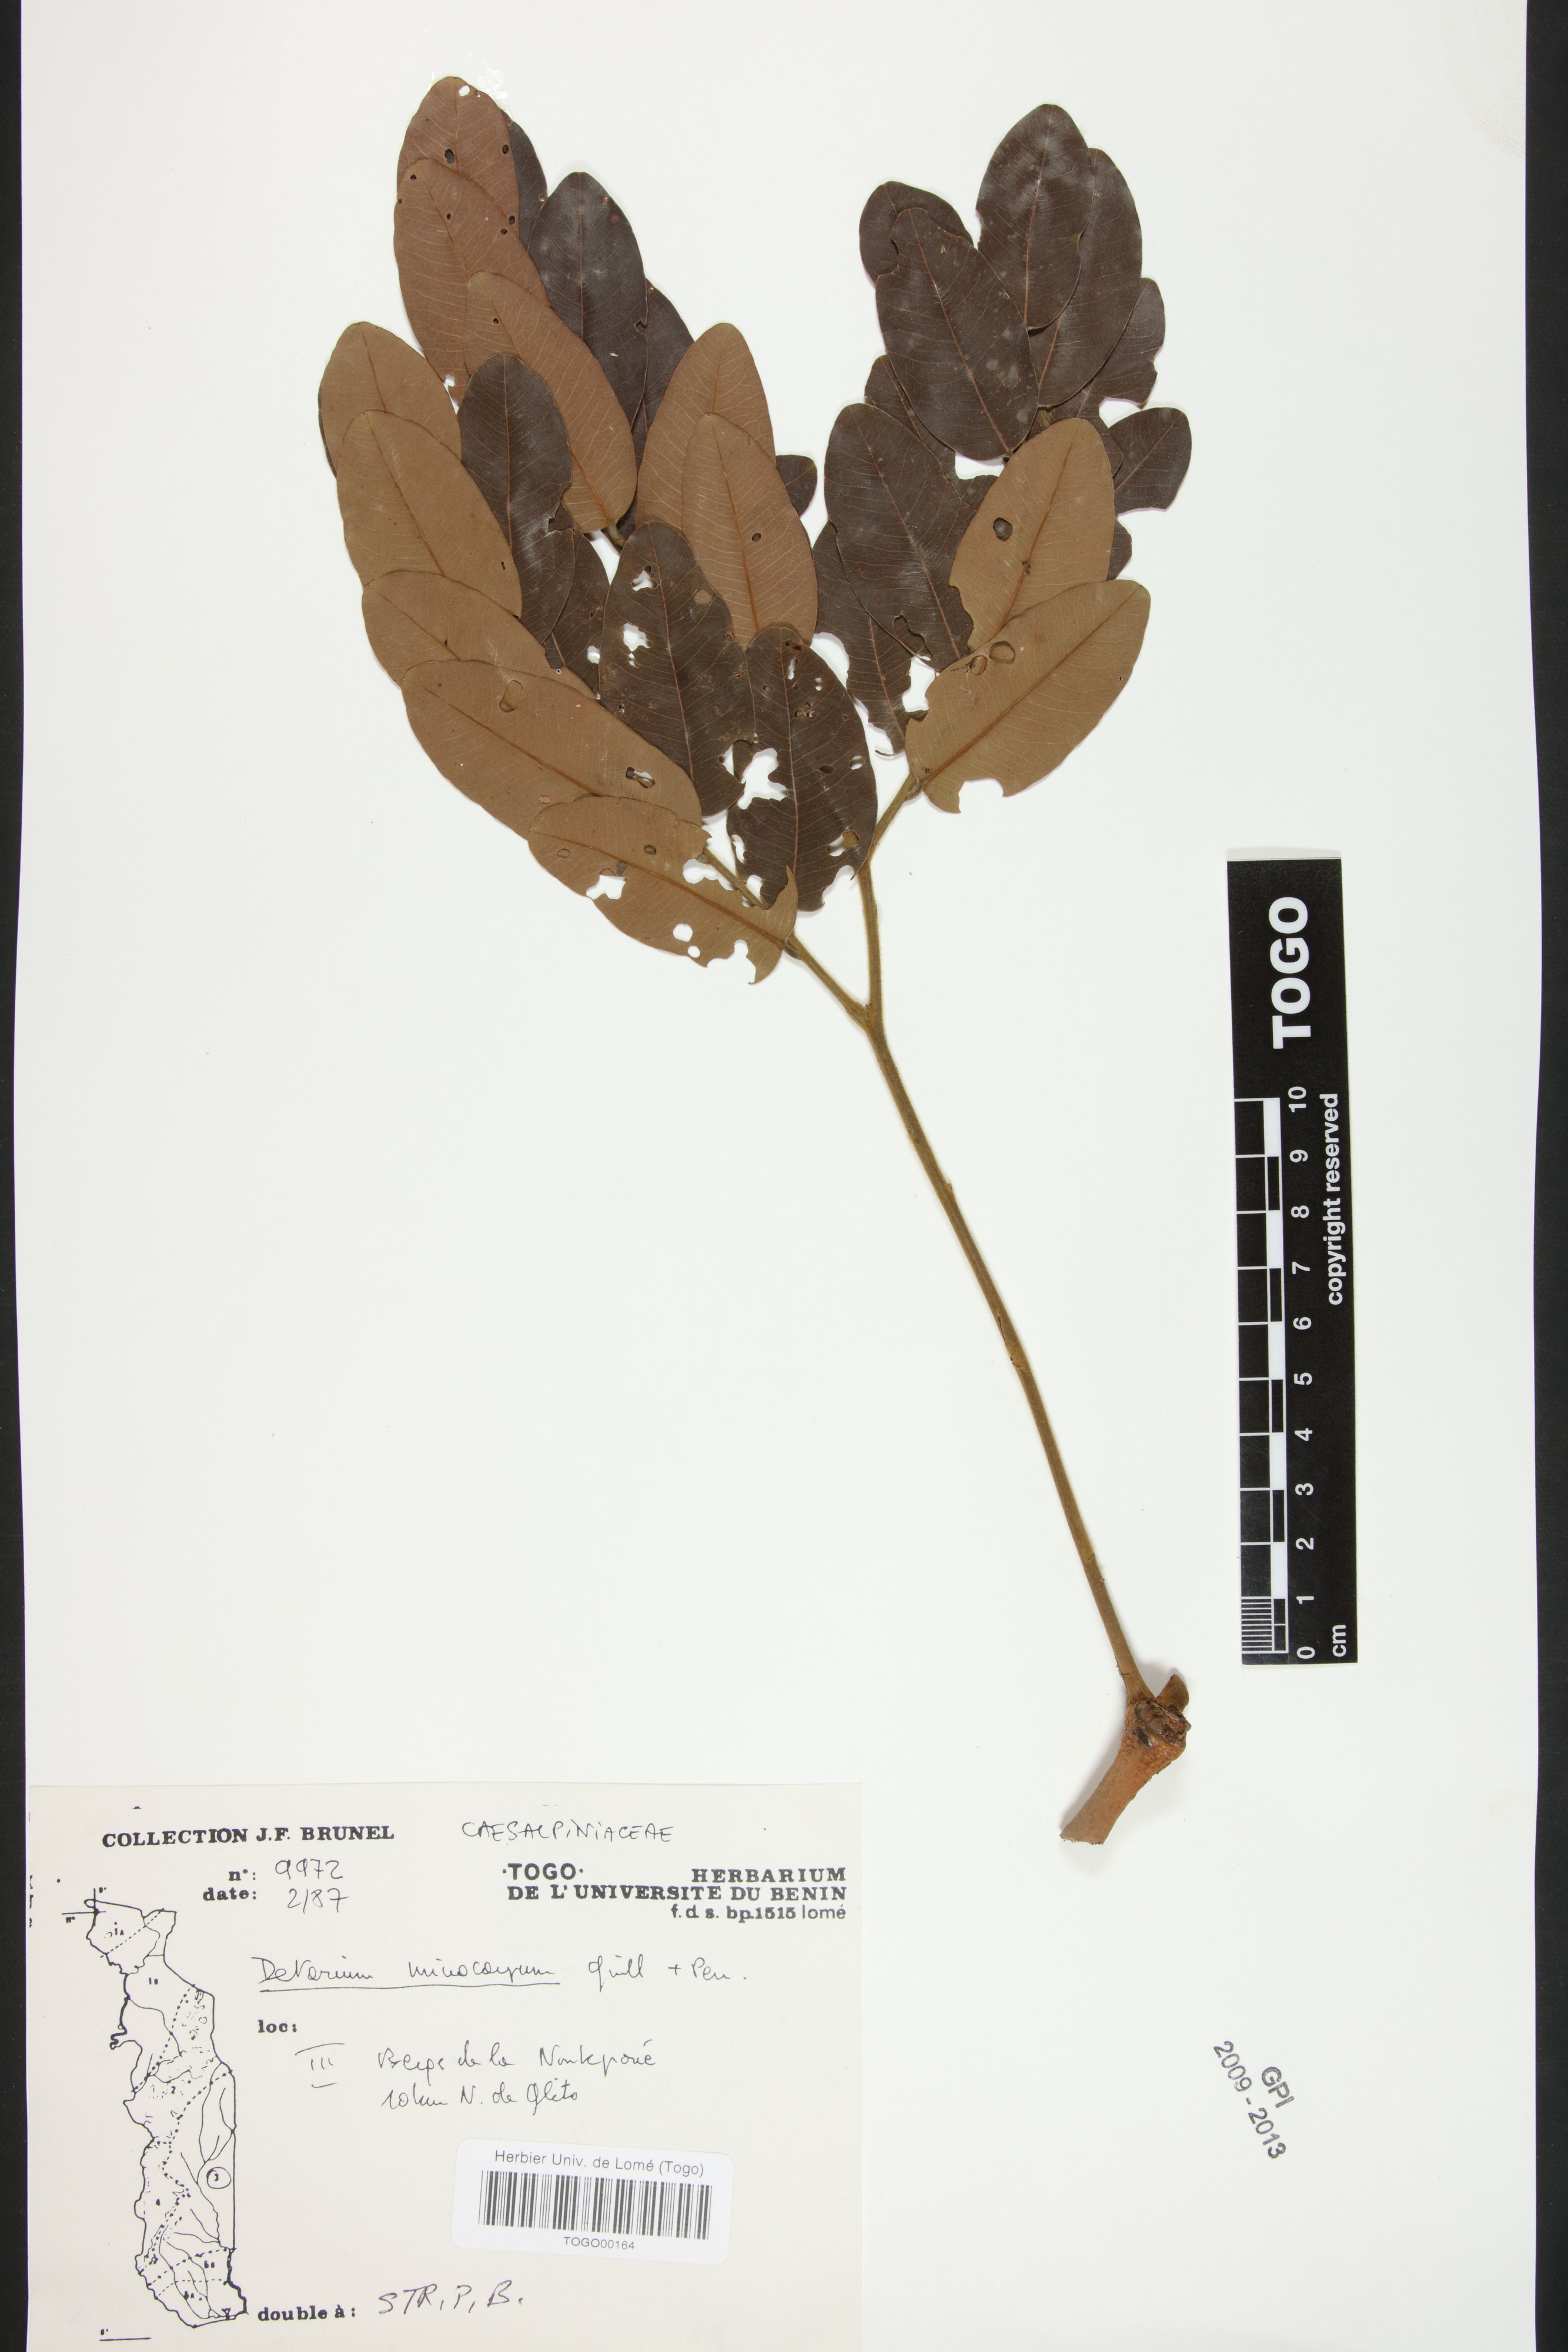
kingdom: Plantae
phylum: Tracheophyta
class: Magnoliopsida
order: Fabales
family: Fabaceae
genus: Detarium
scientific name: Detarium microcarpum
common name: Sweet dattock
